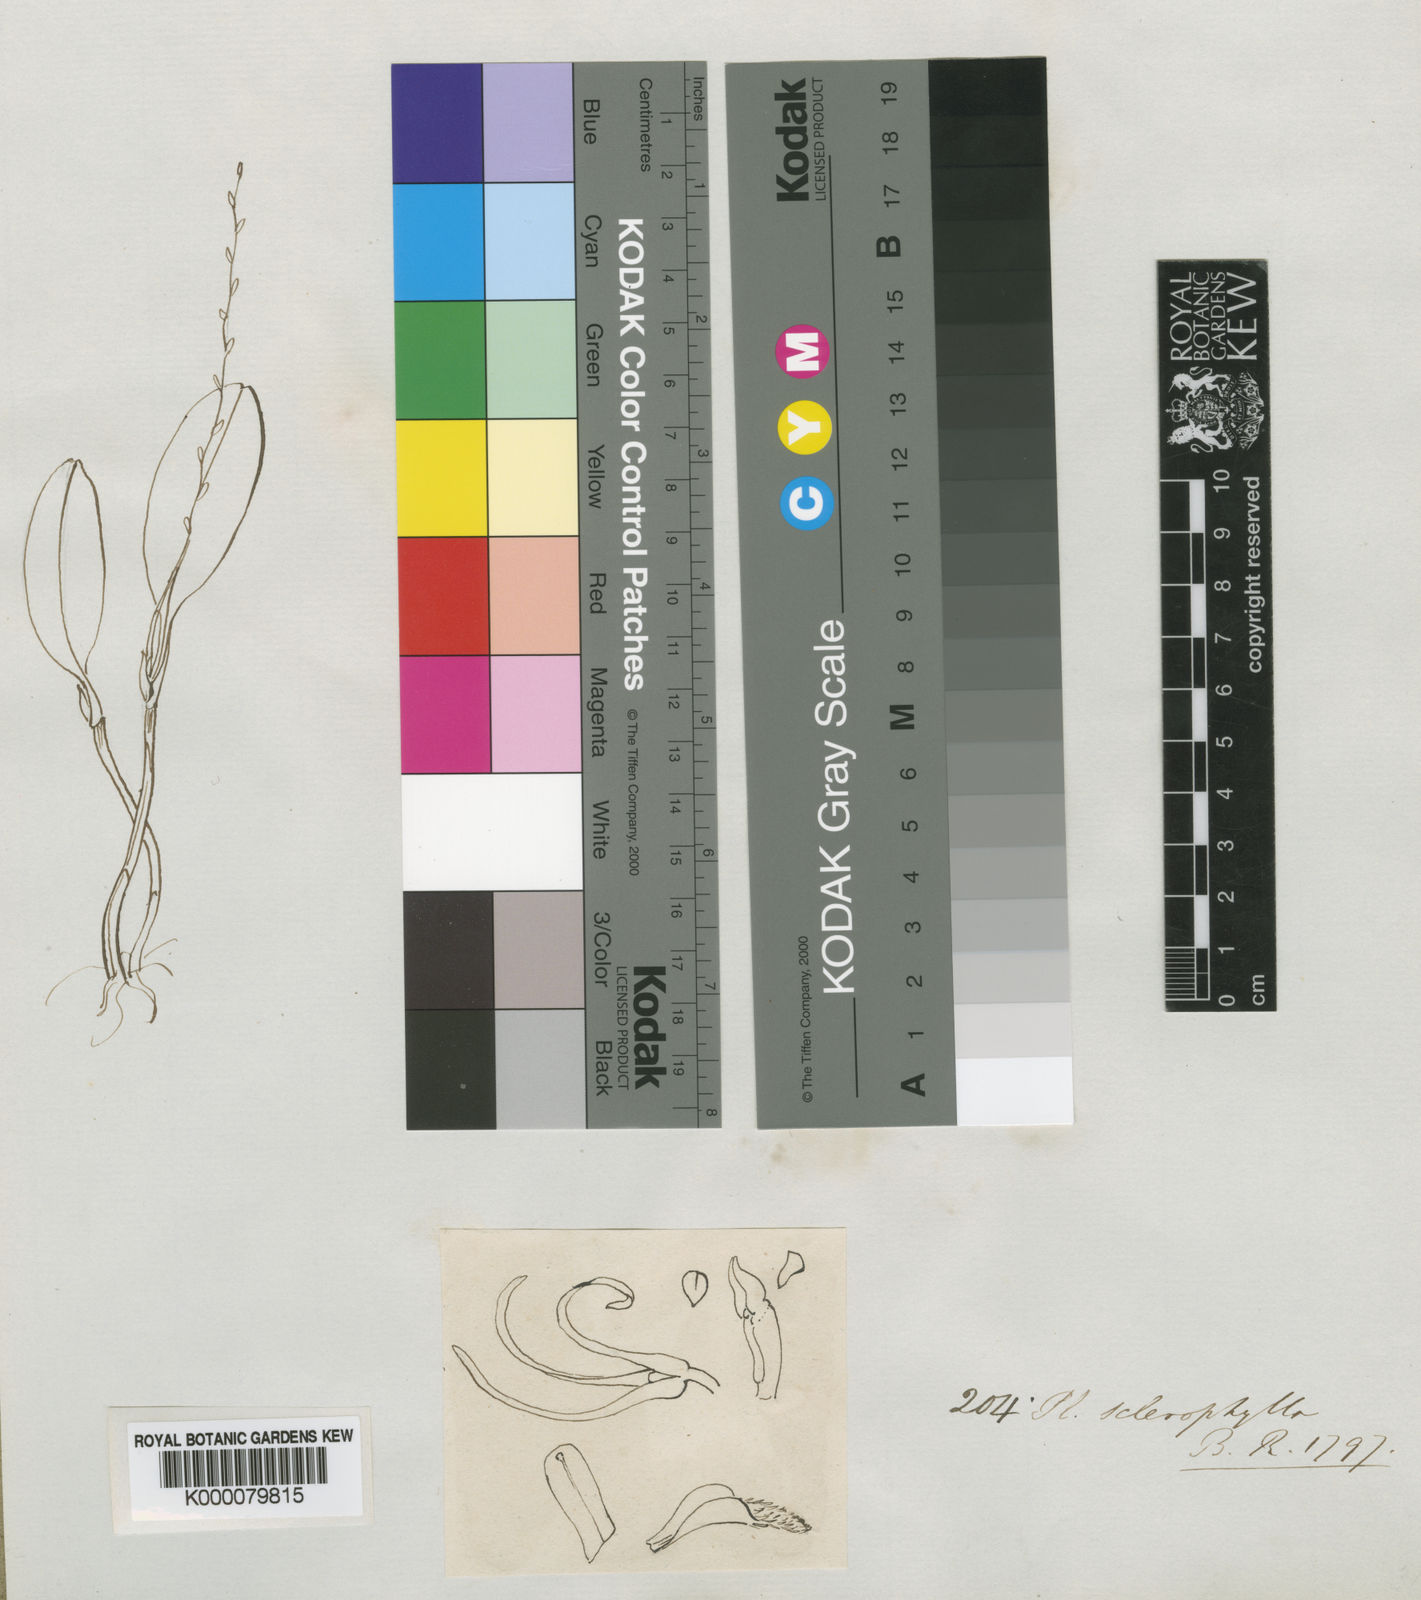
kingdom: Plantae
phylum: Tracheophyta
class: Liliopsida
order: Asparagales
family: Orchidaceae
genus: Stelis
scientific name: Stelis sclerophylla
